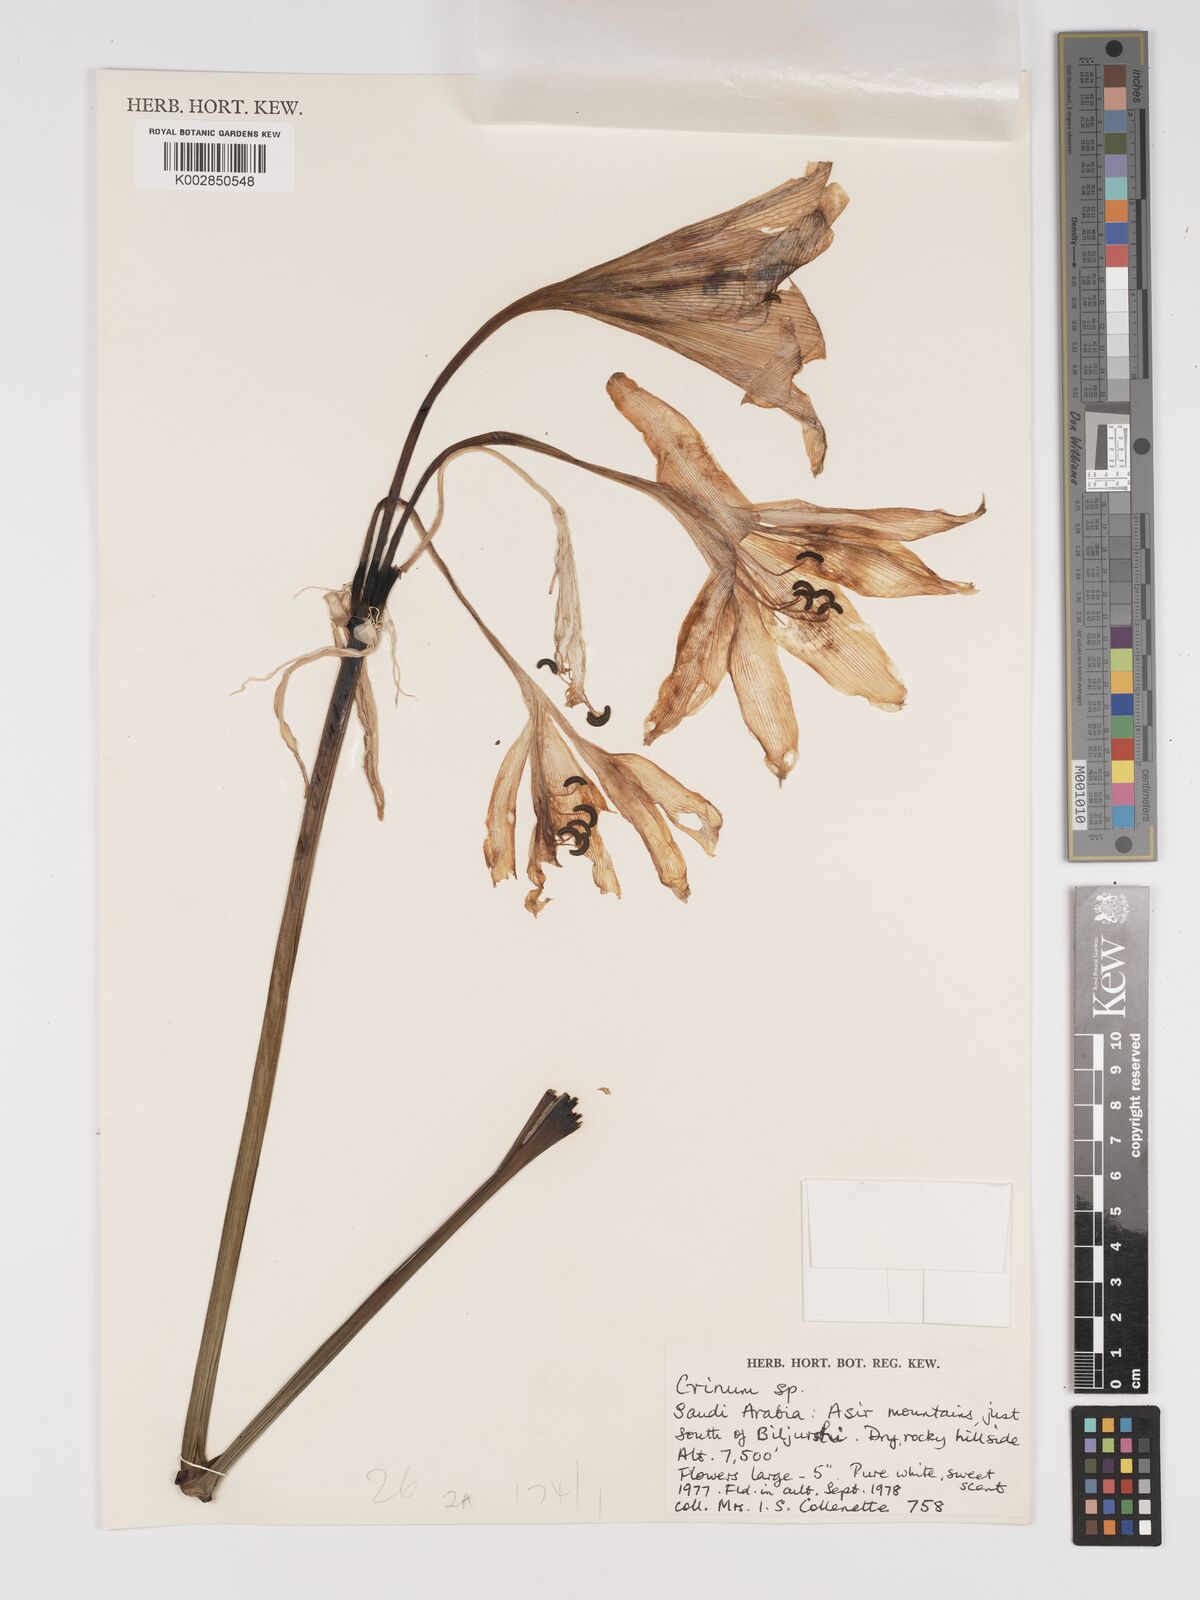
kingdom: Plantae
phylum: Tracheophyta
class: Liliopsida
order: Asparagales
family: Amaryllidaceae
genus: Crinum
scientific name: Crinum
